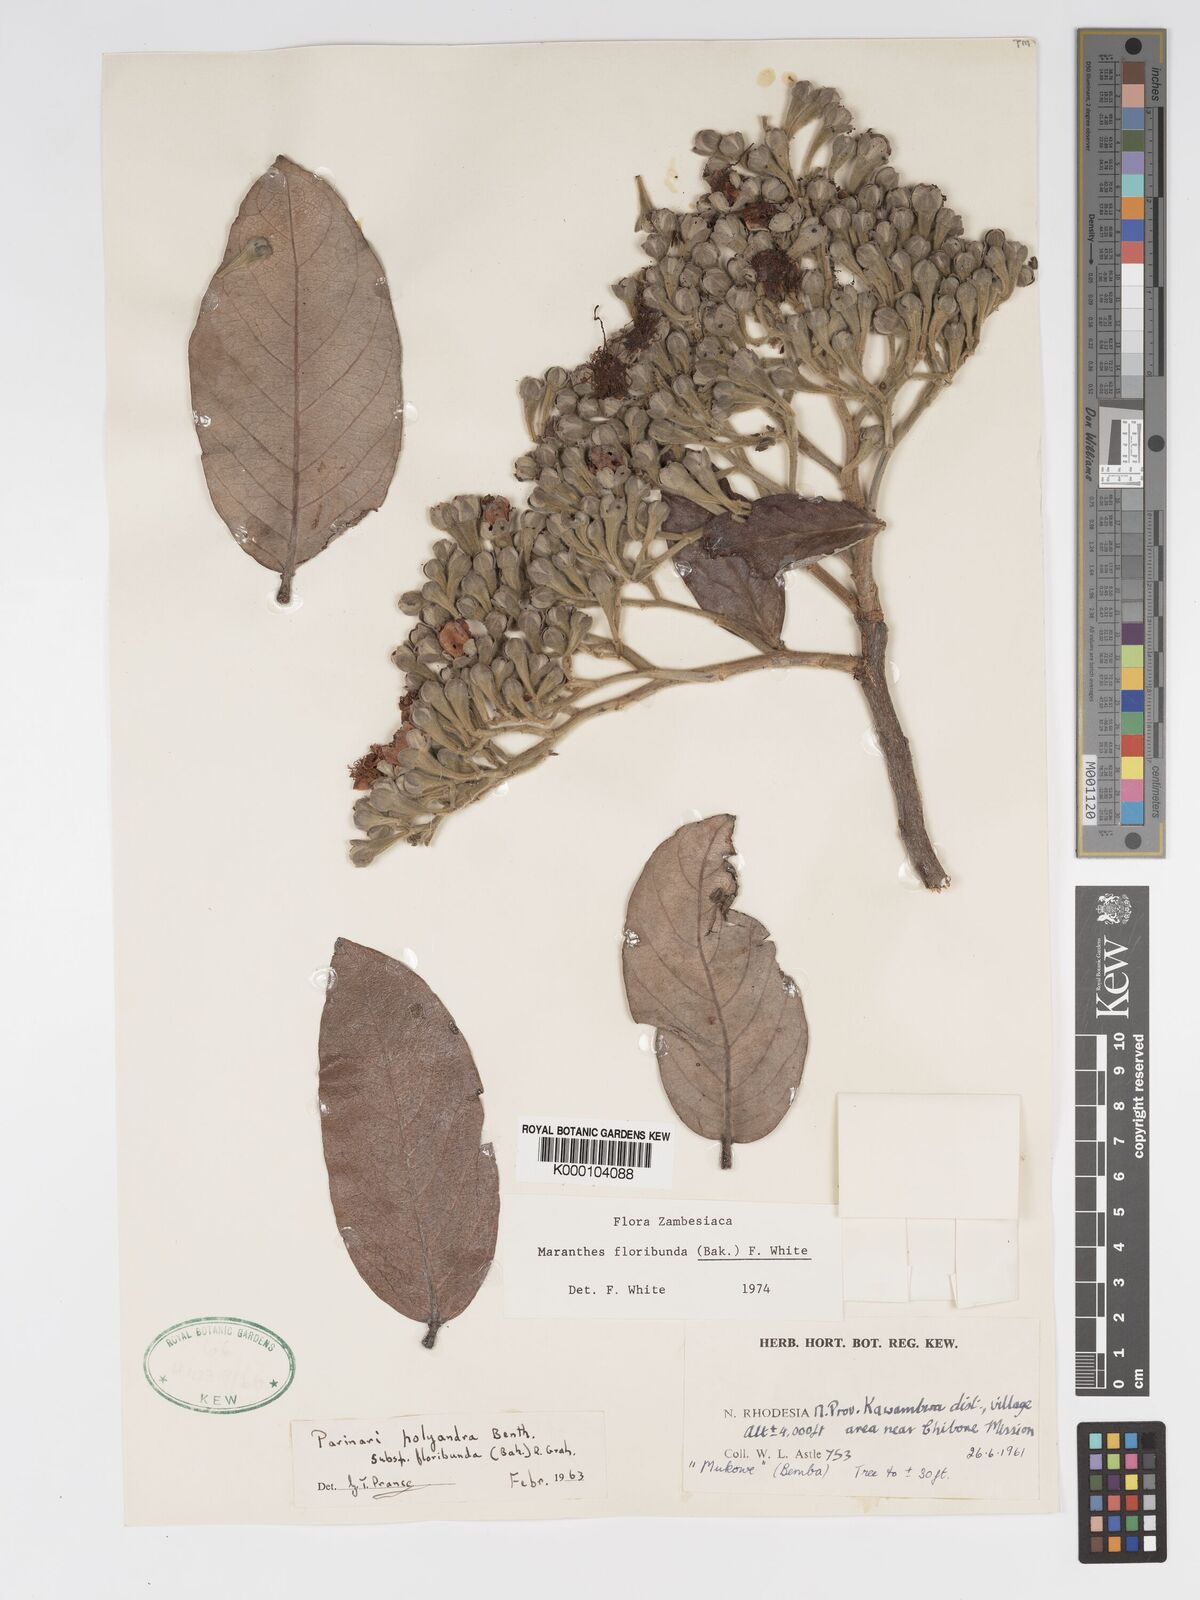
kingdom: Plantae
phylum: Tracheophyta
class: Magnoliopsida
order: Malpighiales
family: Chrysobalanaceae
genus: Maranthes
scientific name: Maranthes floribunda
